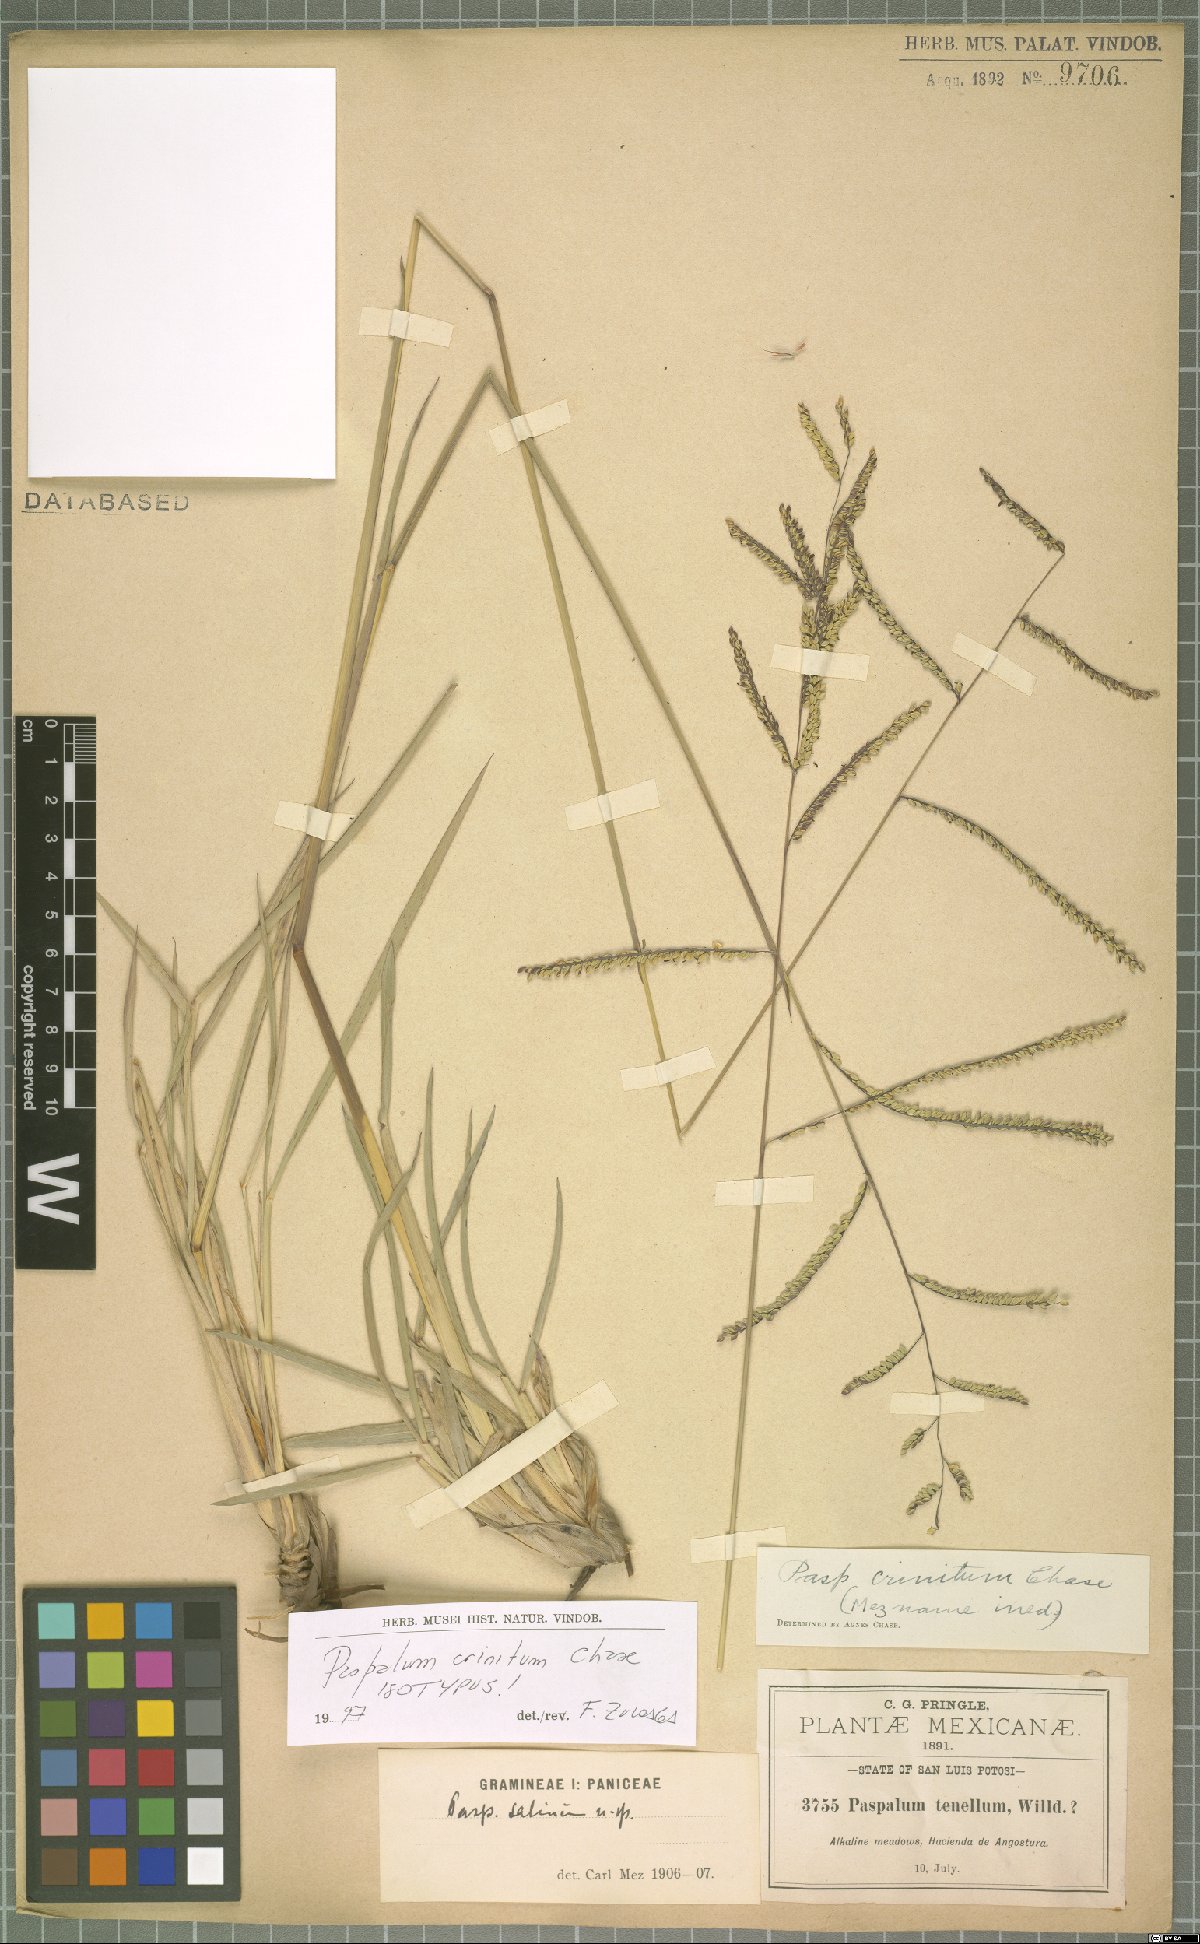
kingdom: Plantae
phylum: Tracheophyta
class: Liliopsida
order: Poales
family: Poaceae
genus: Paspalum
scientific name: Paspalum crinitum
